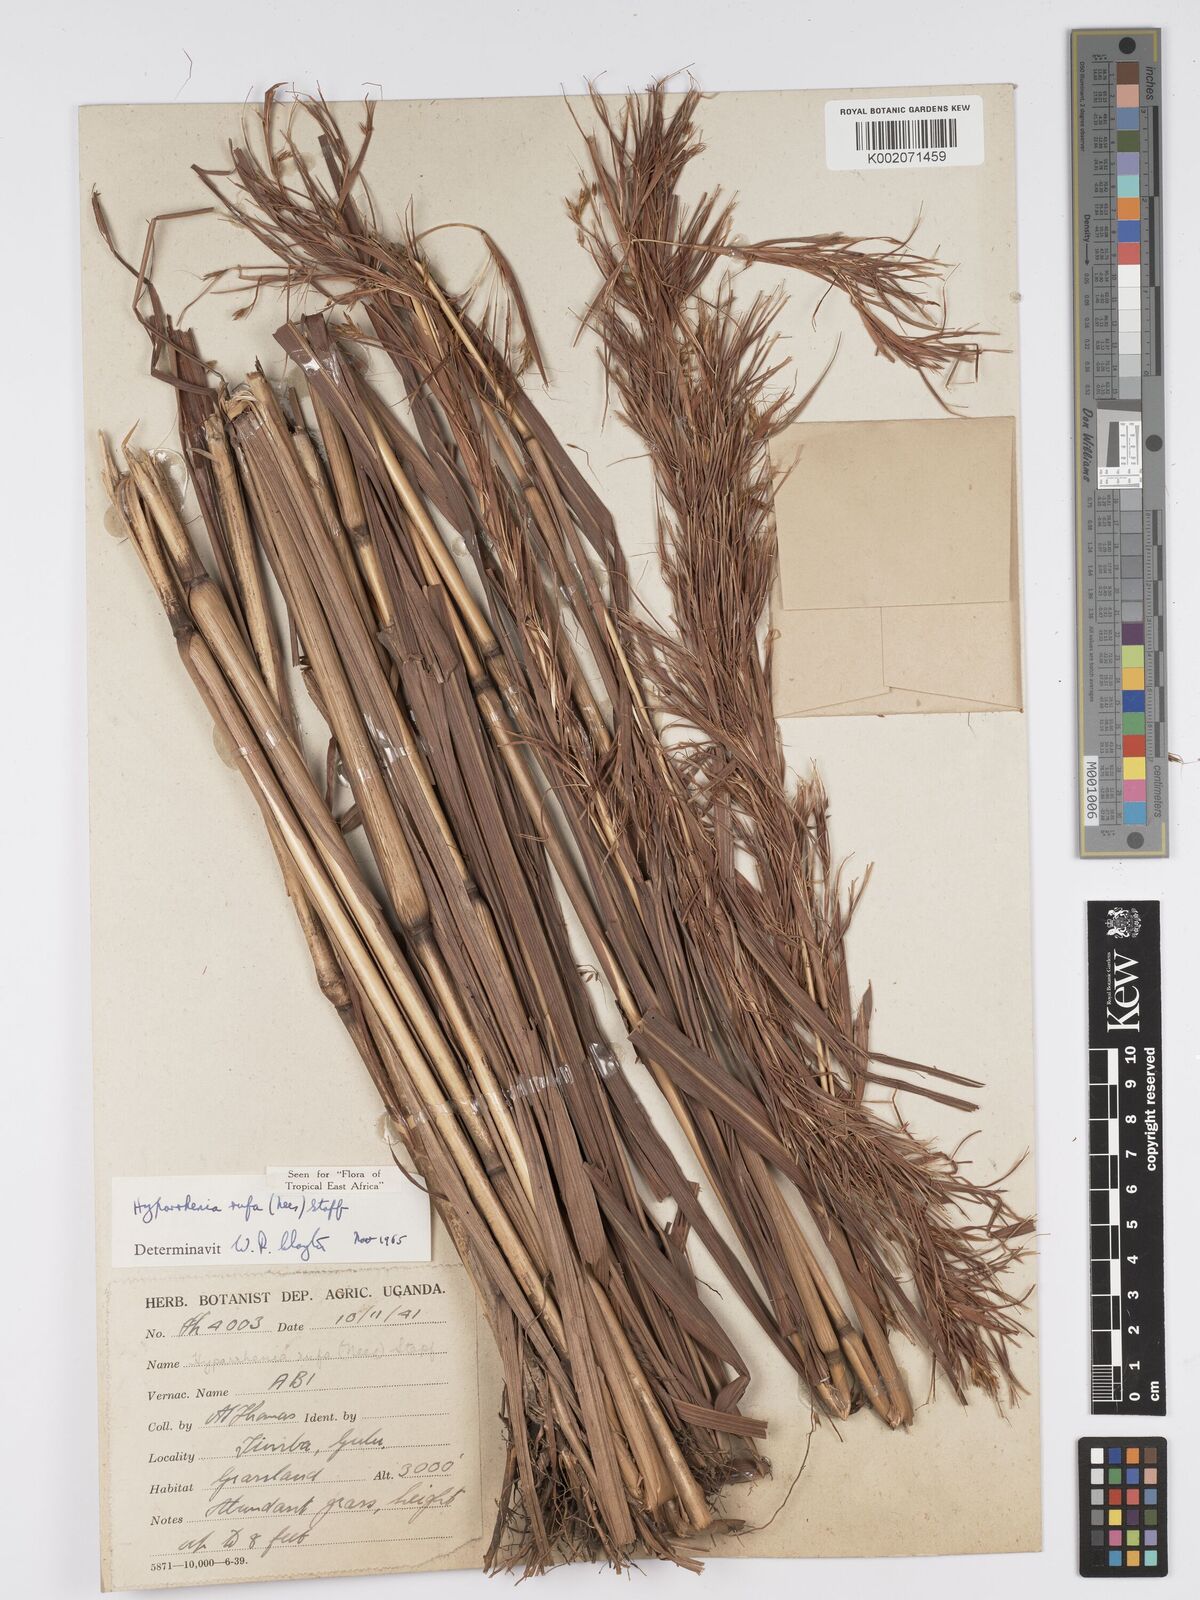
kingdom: Plantae
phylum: Tracheophyta
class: Liliopsida
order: Poales
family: Poaceae
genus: Hyparrhenia
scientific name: Hyparrhenia rufa
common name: Jaraguagrass
